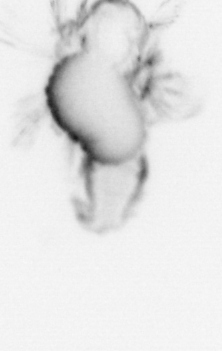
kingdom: Animalia
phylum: Annelida
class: Polychaeta
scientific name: Polychaeta
